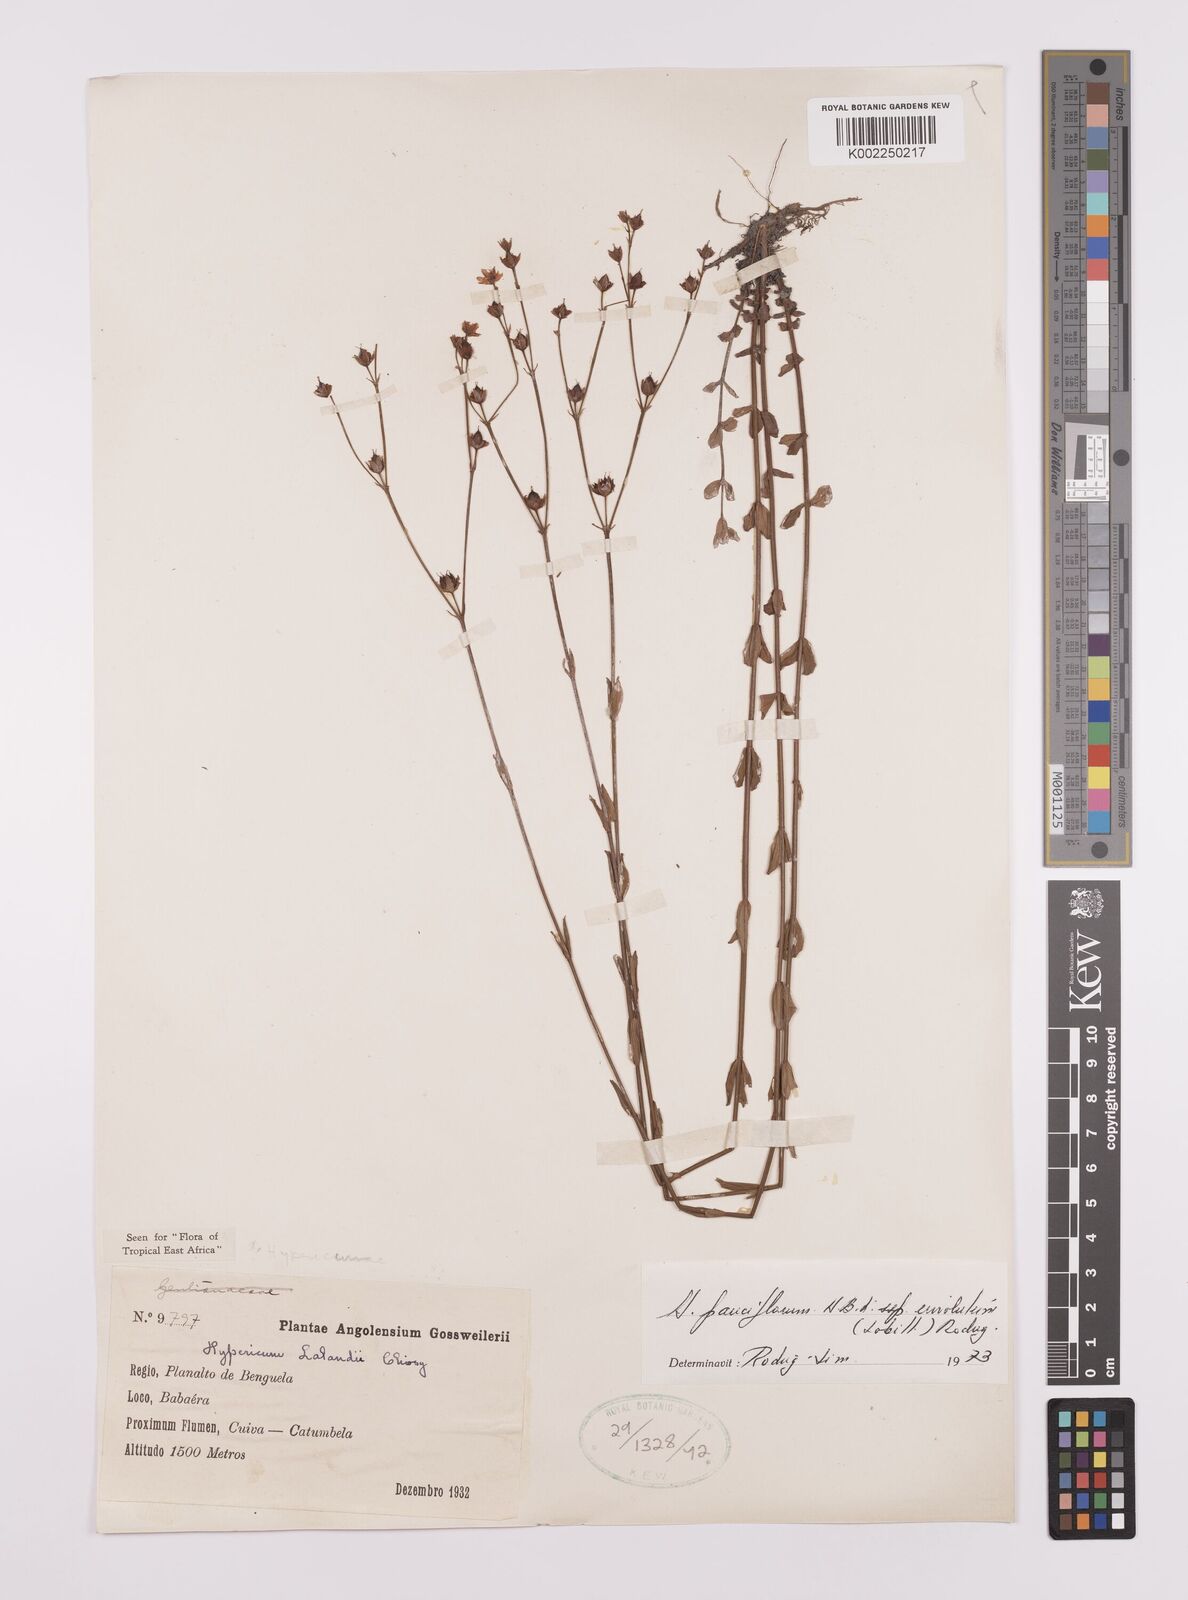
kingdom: Plantae
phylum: Tracheophyta
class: Magnoliopsida
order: Malpighiales
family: Hypericaceae
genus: Hypericum
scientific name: Hypericum lalandii
